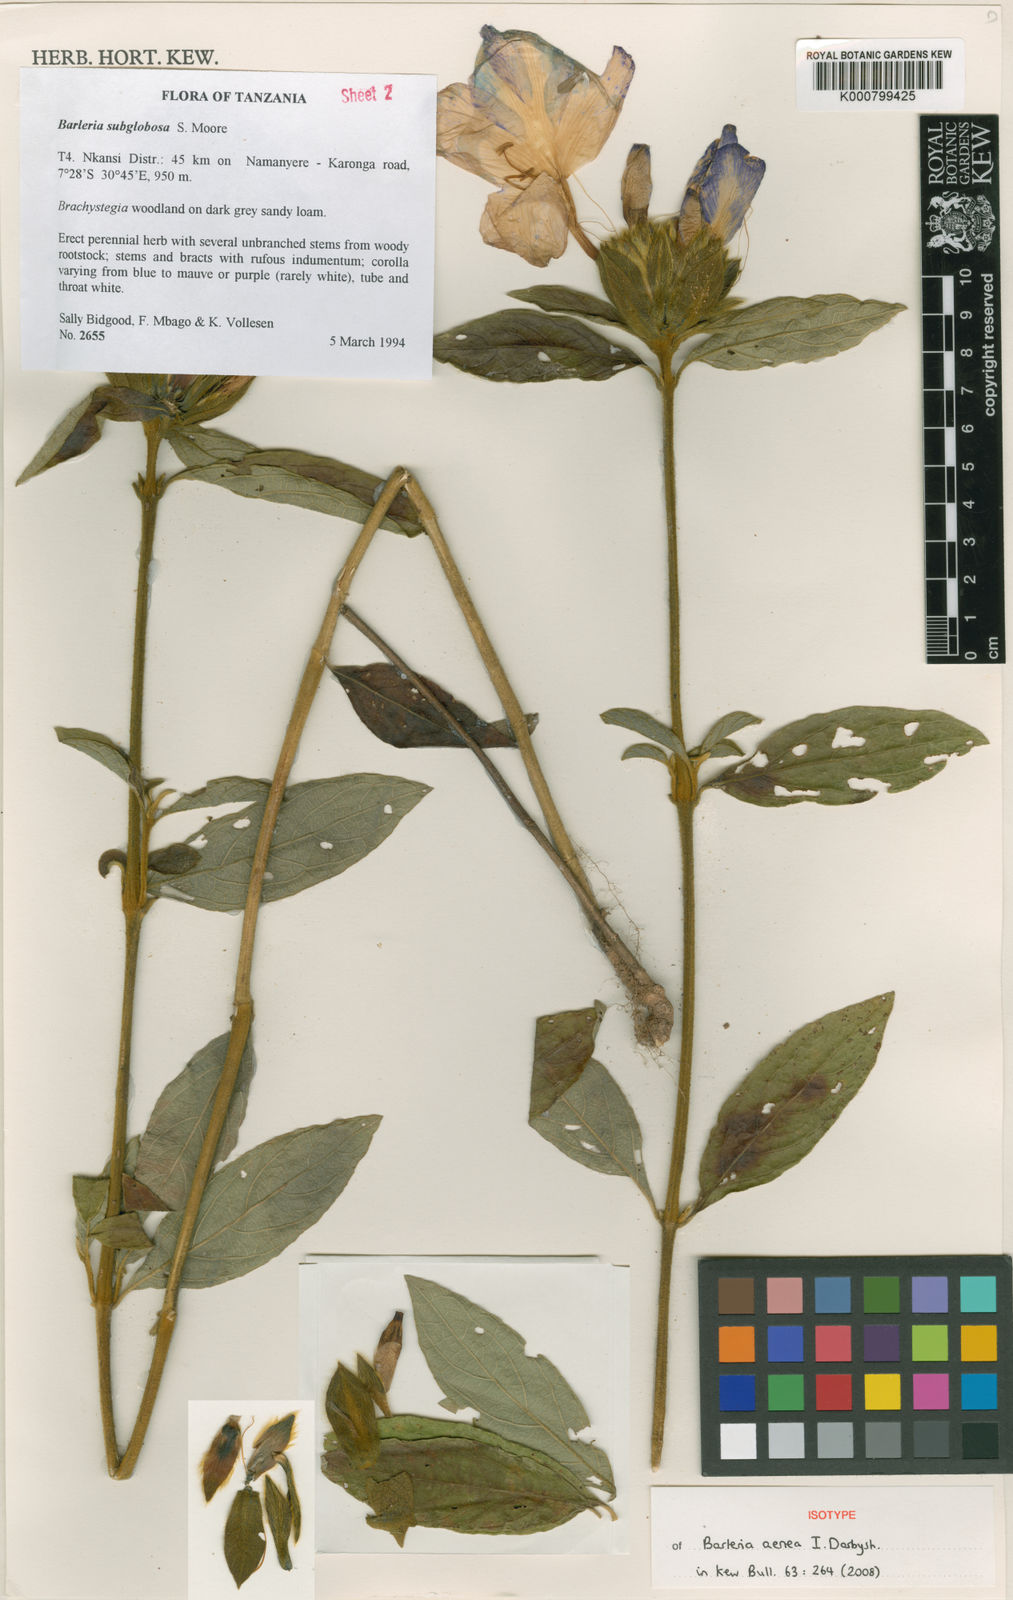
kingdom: Plantae
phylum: Tracheophyta
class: Magnoliopsida
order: Lamiales
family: Acanthaceae
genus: Barleria
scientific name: Barleria aenea
